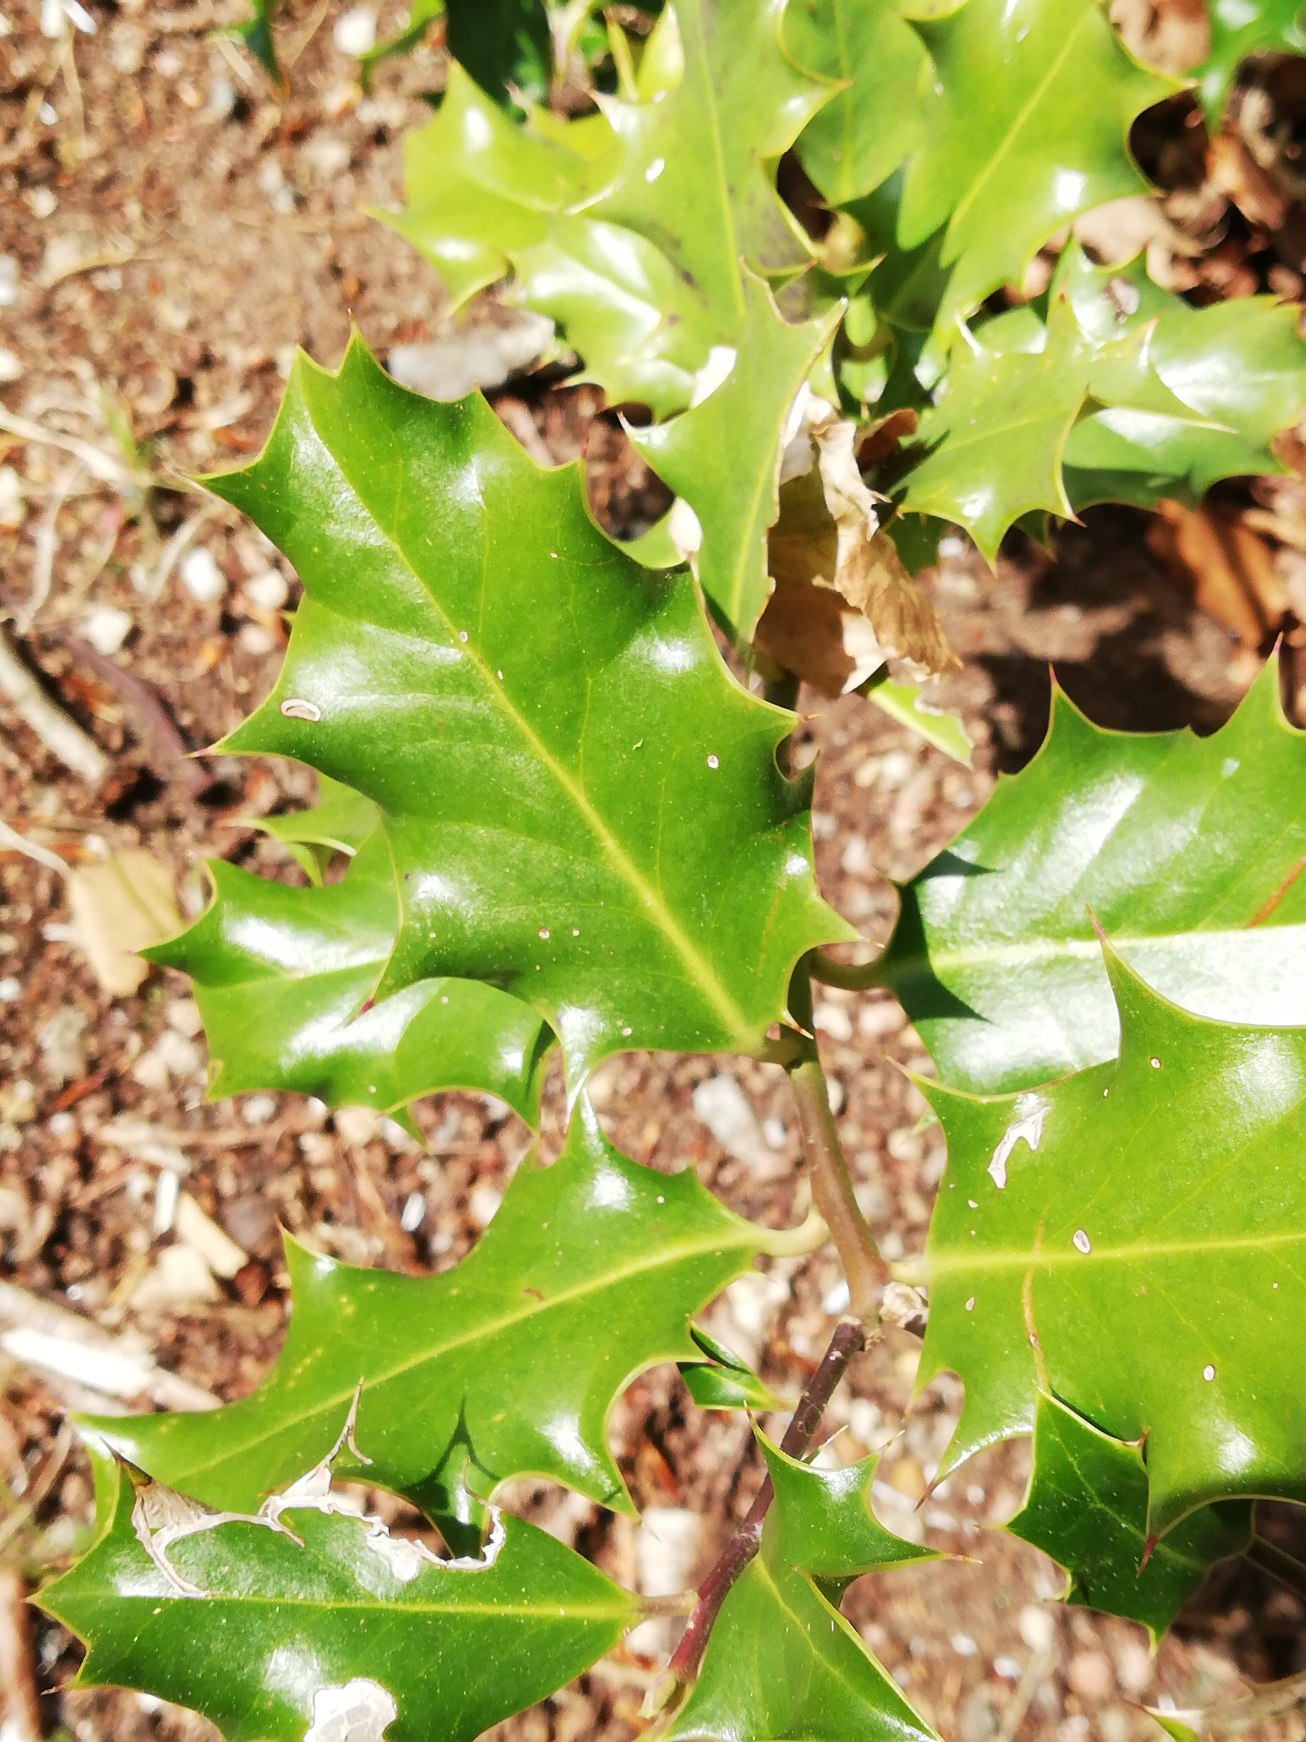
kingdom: Plantae
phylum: Tracheophyta
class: Magnoliopsida
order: Aquifoliales
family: Aquifoliaceae
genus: Ilex
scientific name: Ilex aquifolium
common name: Kristtorn
